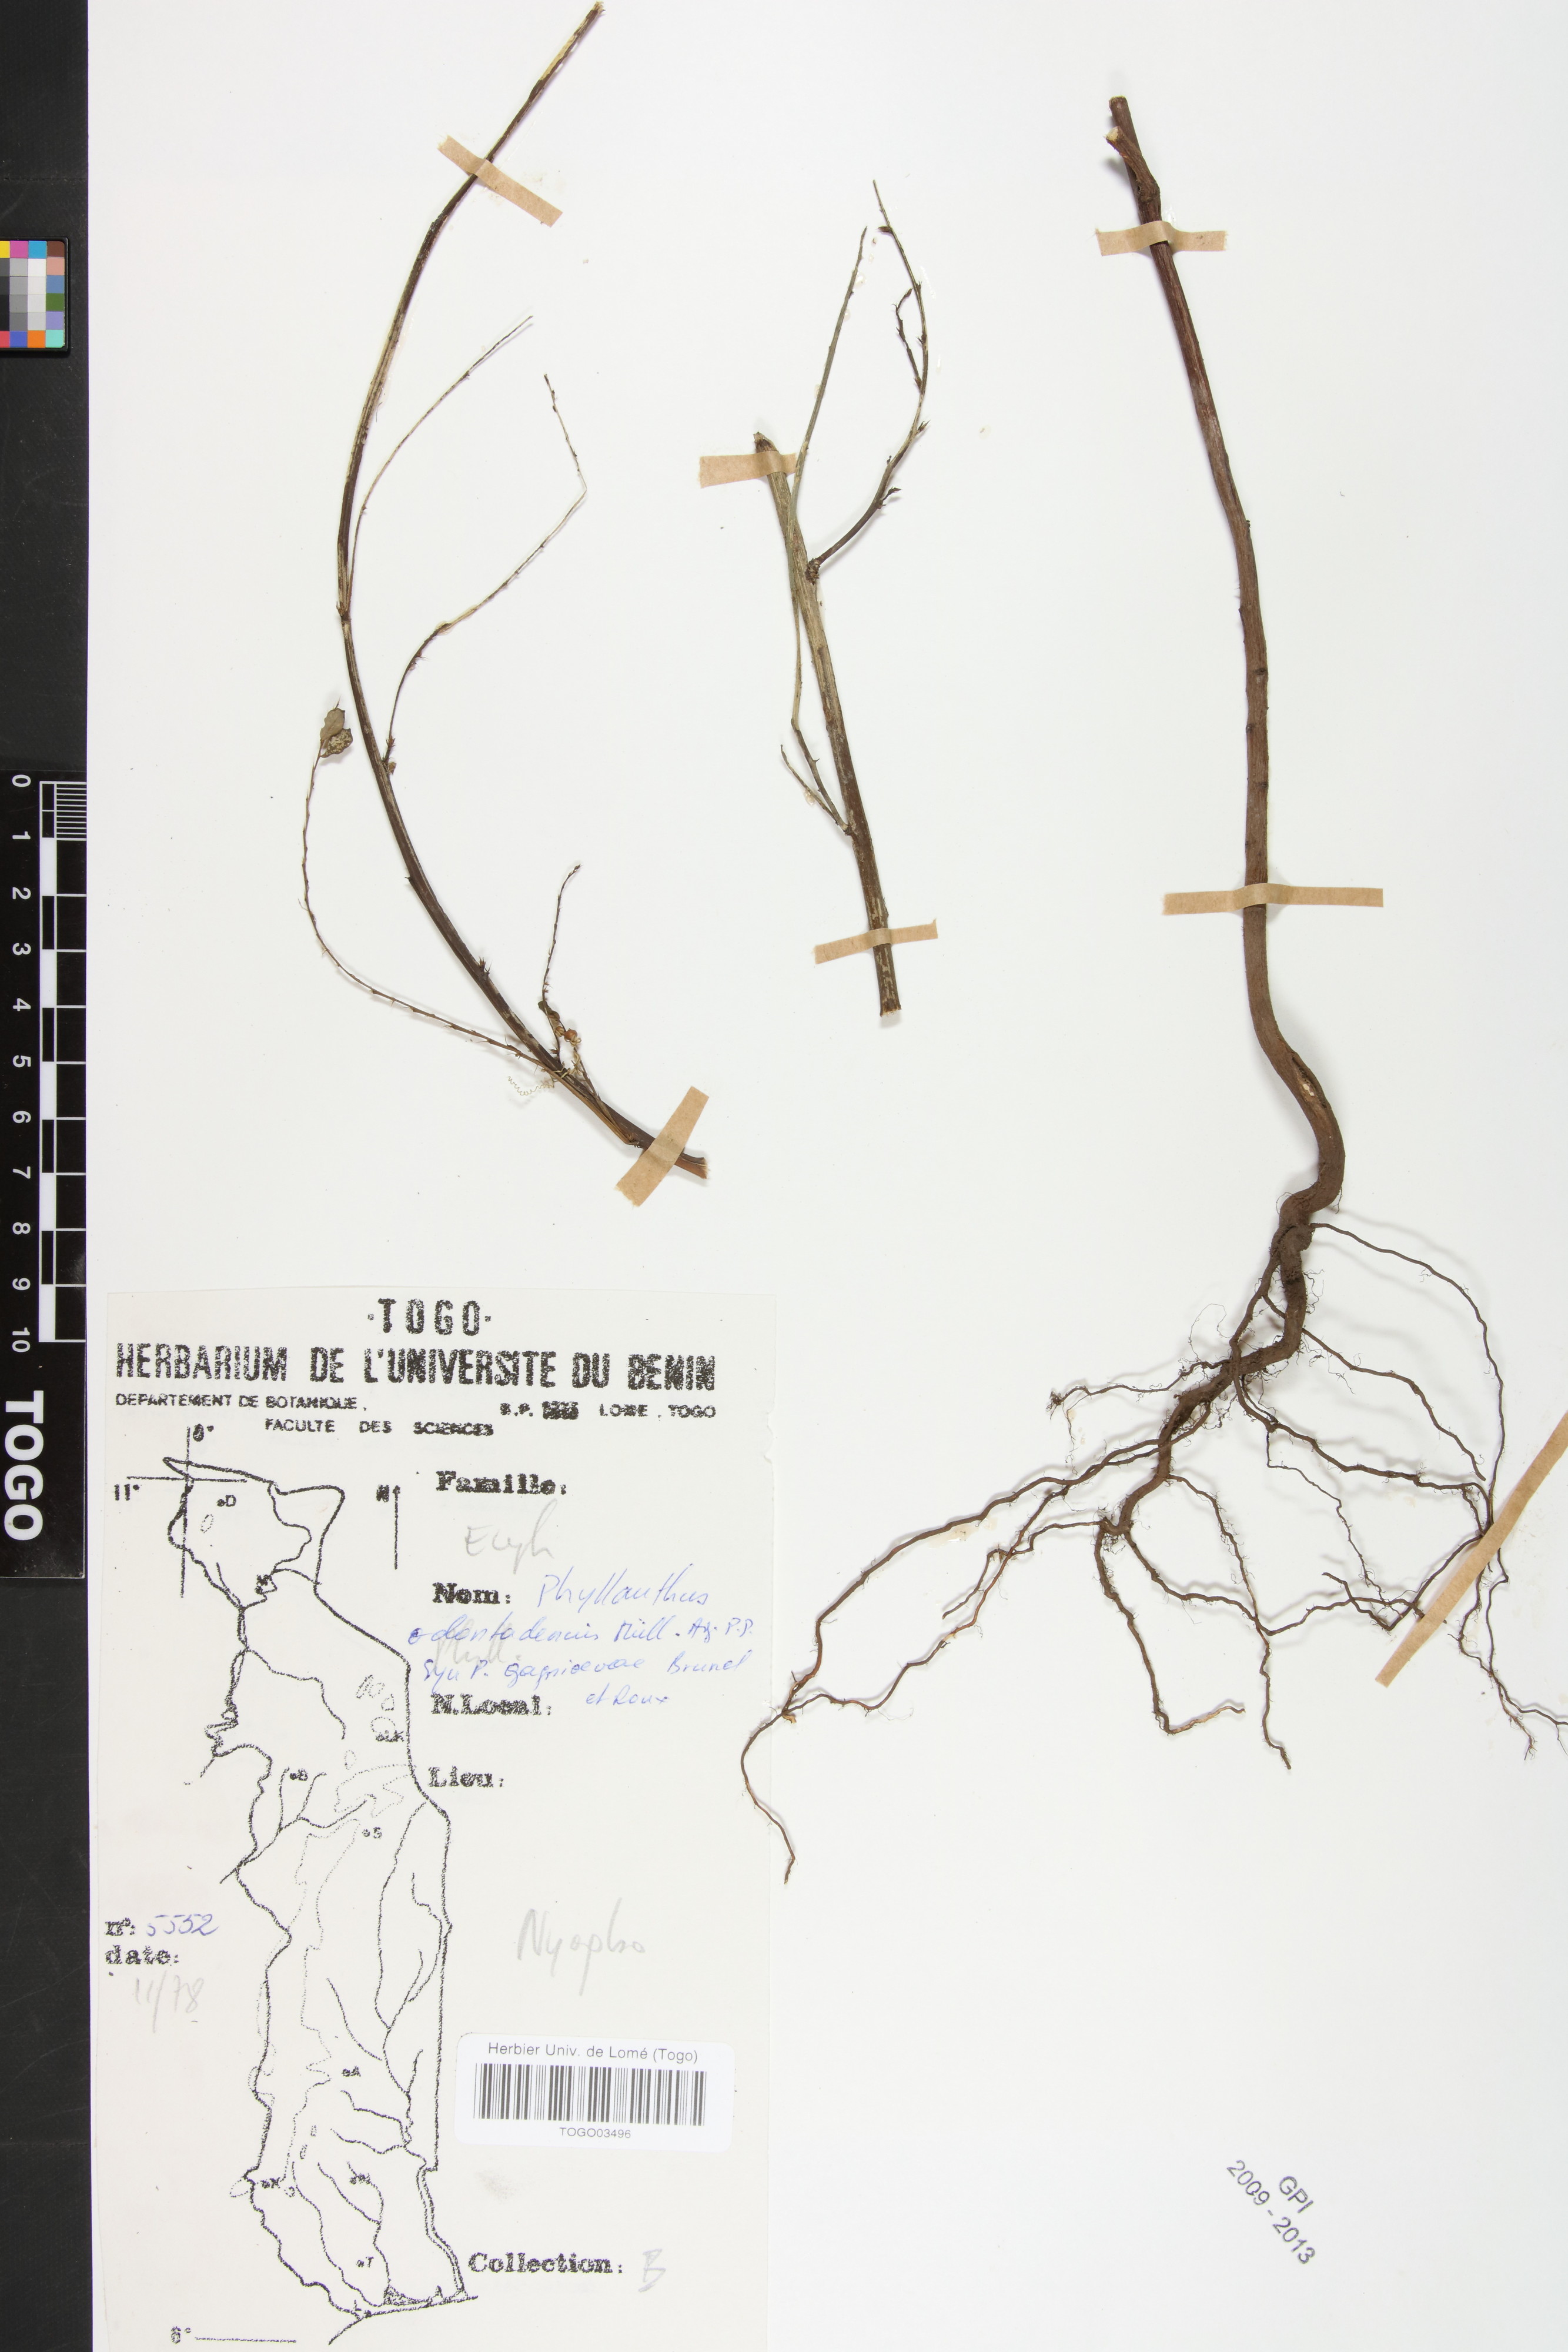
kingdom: Plantae
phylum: Tracheophyta
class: Magnoliopsida
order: Malpighiales
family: Phyllanthaceae
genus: Phyllanthus
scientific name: Phyllanthus odontadenius
